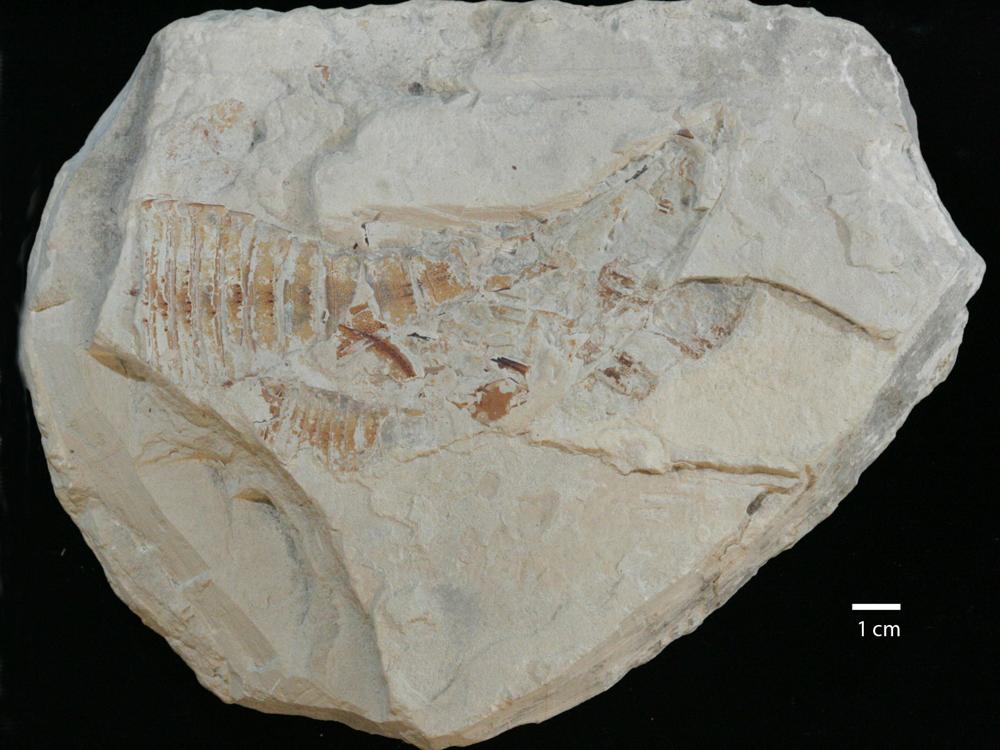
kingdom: Animalia
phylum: Arthropoda
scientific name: Arthropoda
